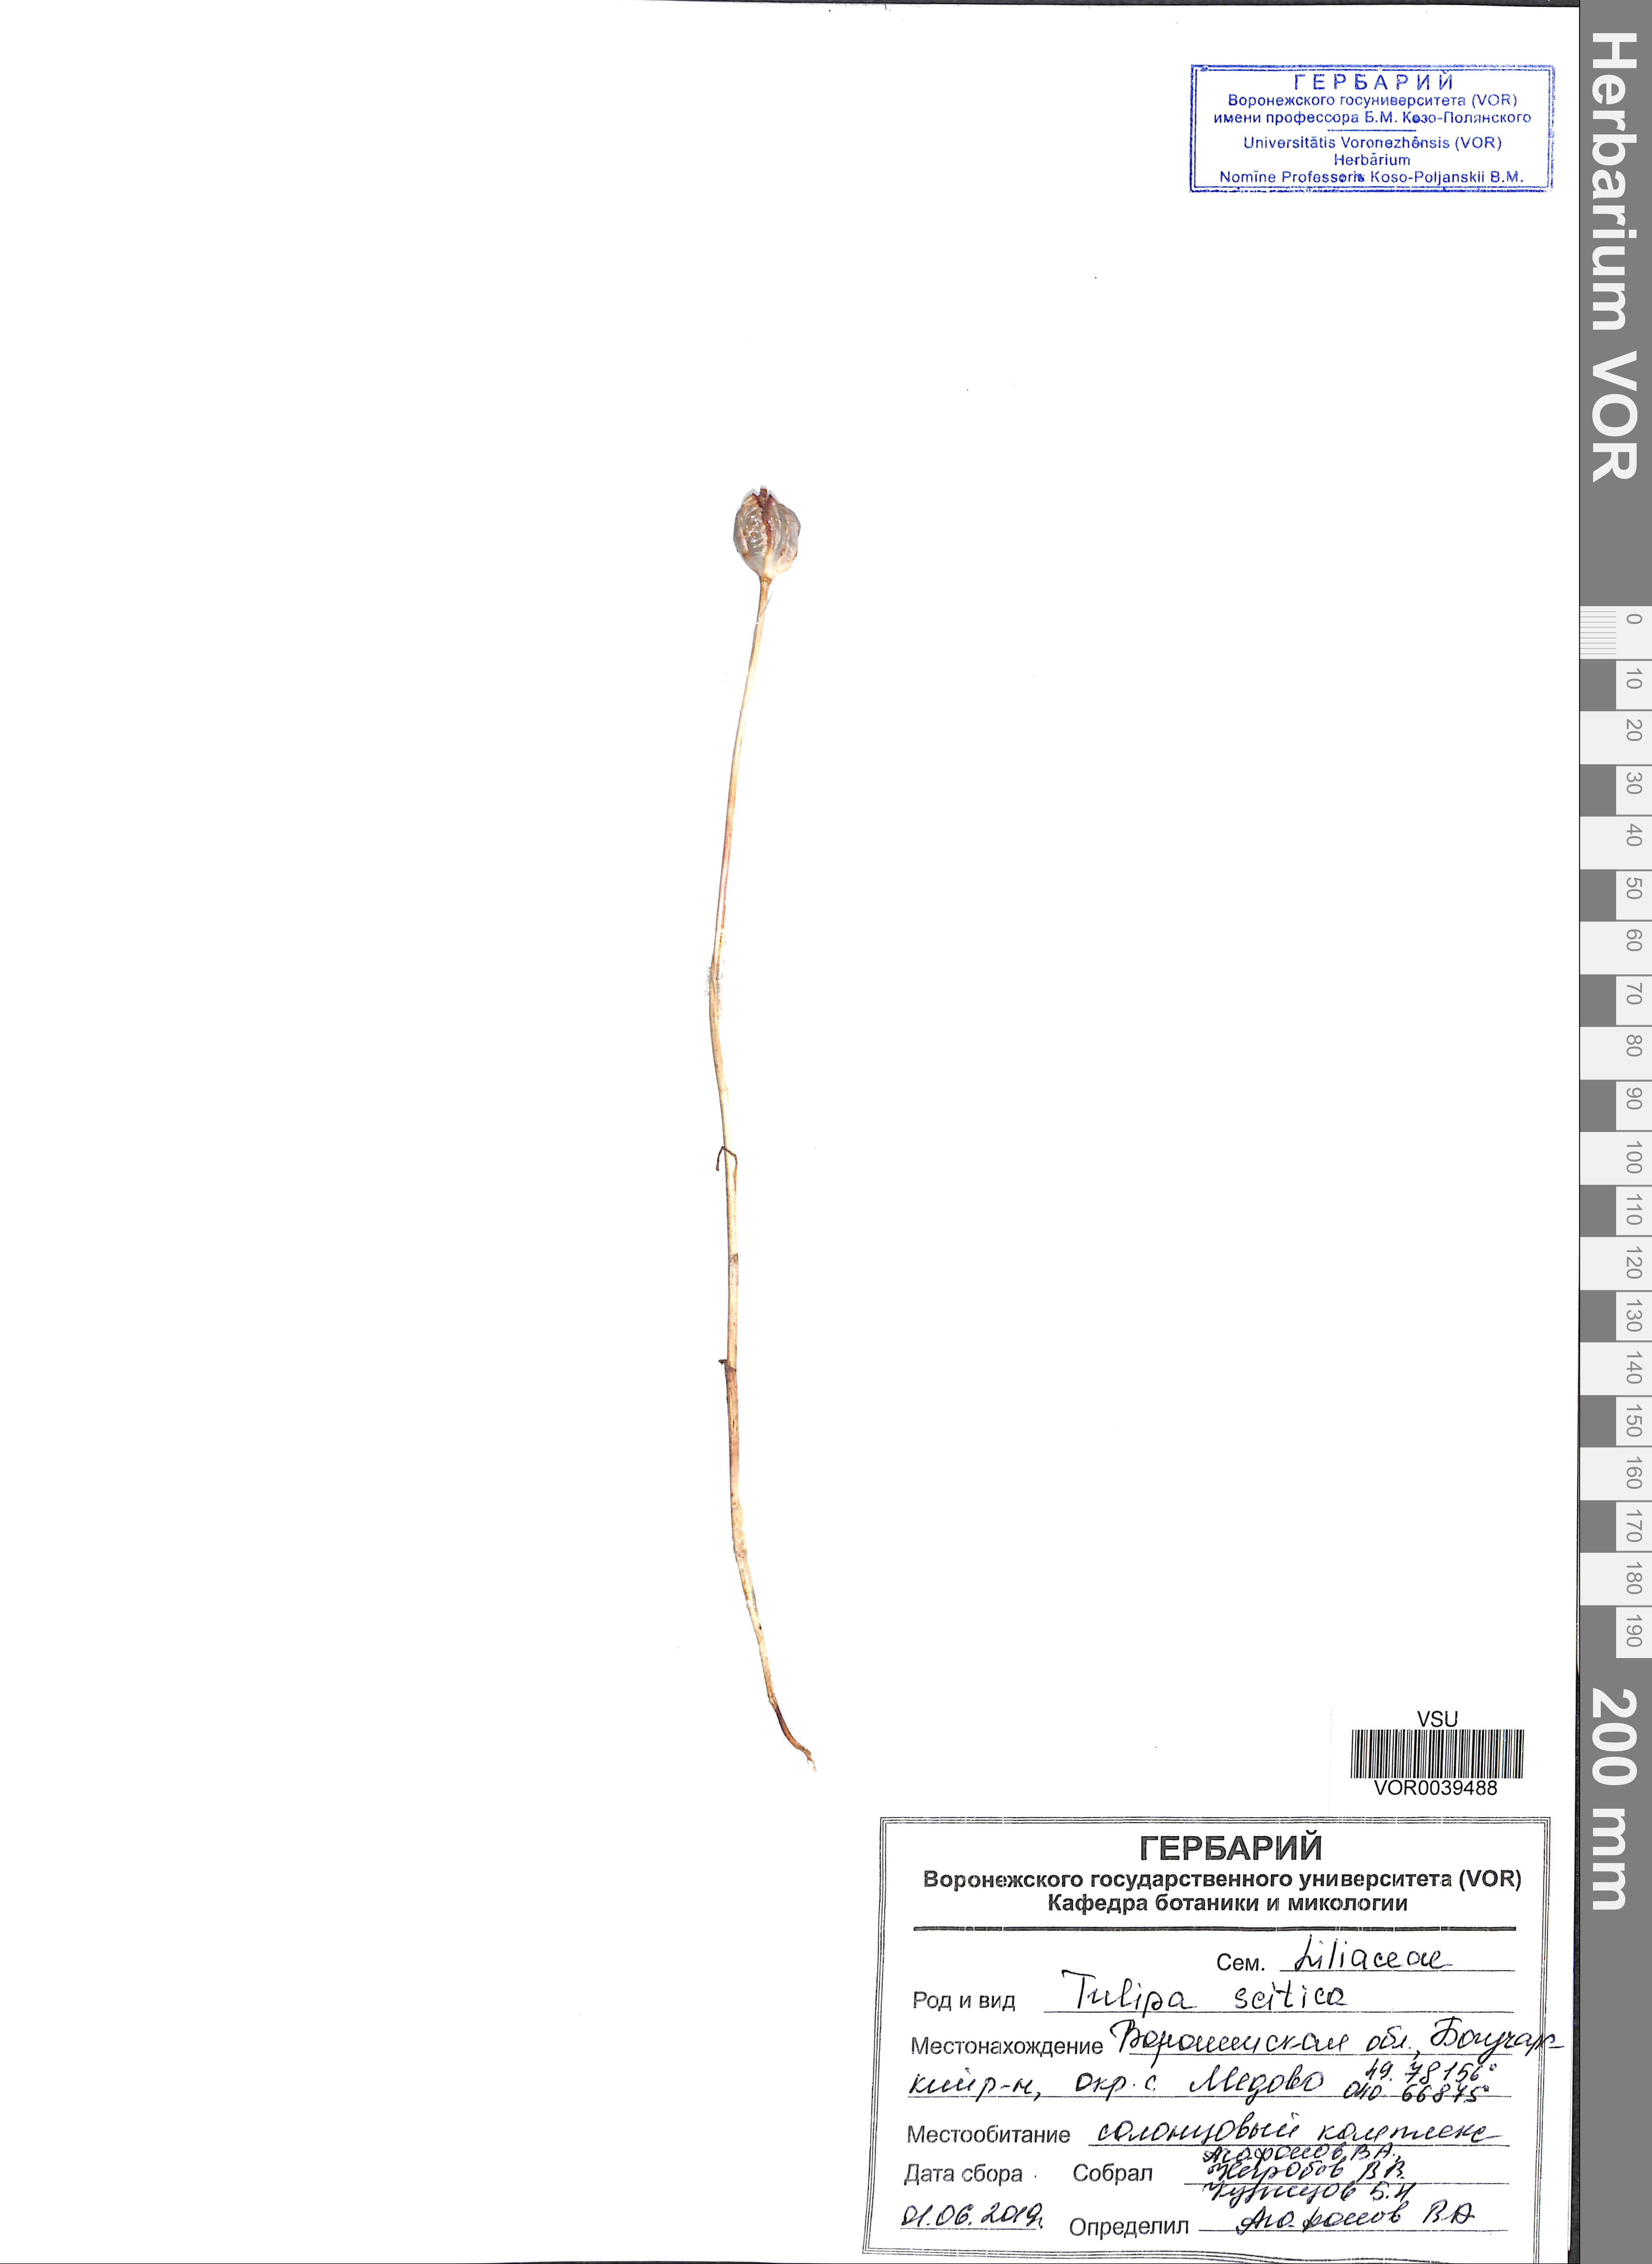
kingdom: Plantae
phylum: Tracheophyta
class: Liliopsida
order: Liliales
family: Liliaceae
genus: Tulipa
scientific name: Tulipa sylvestris
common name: Wild tulip
